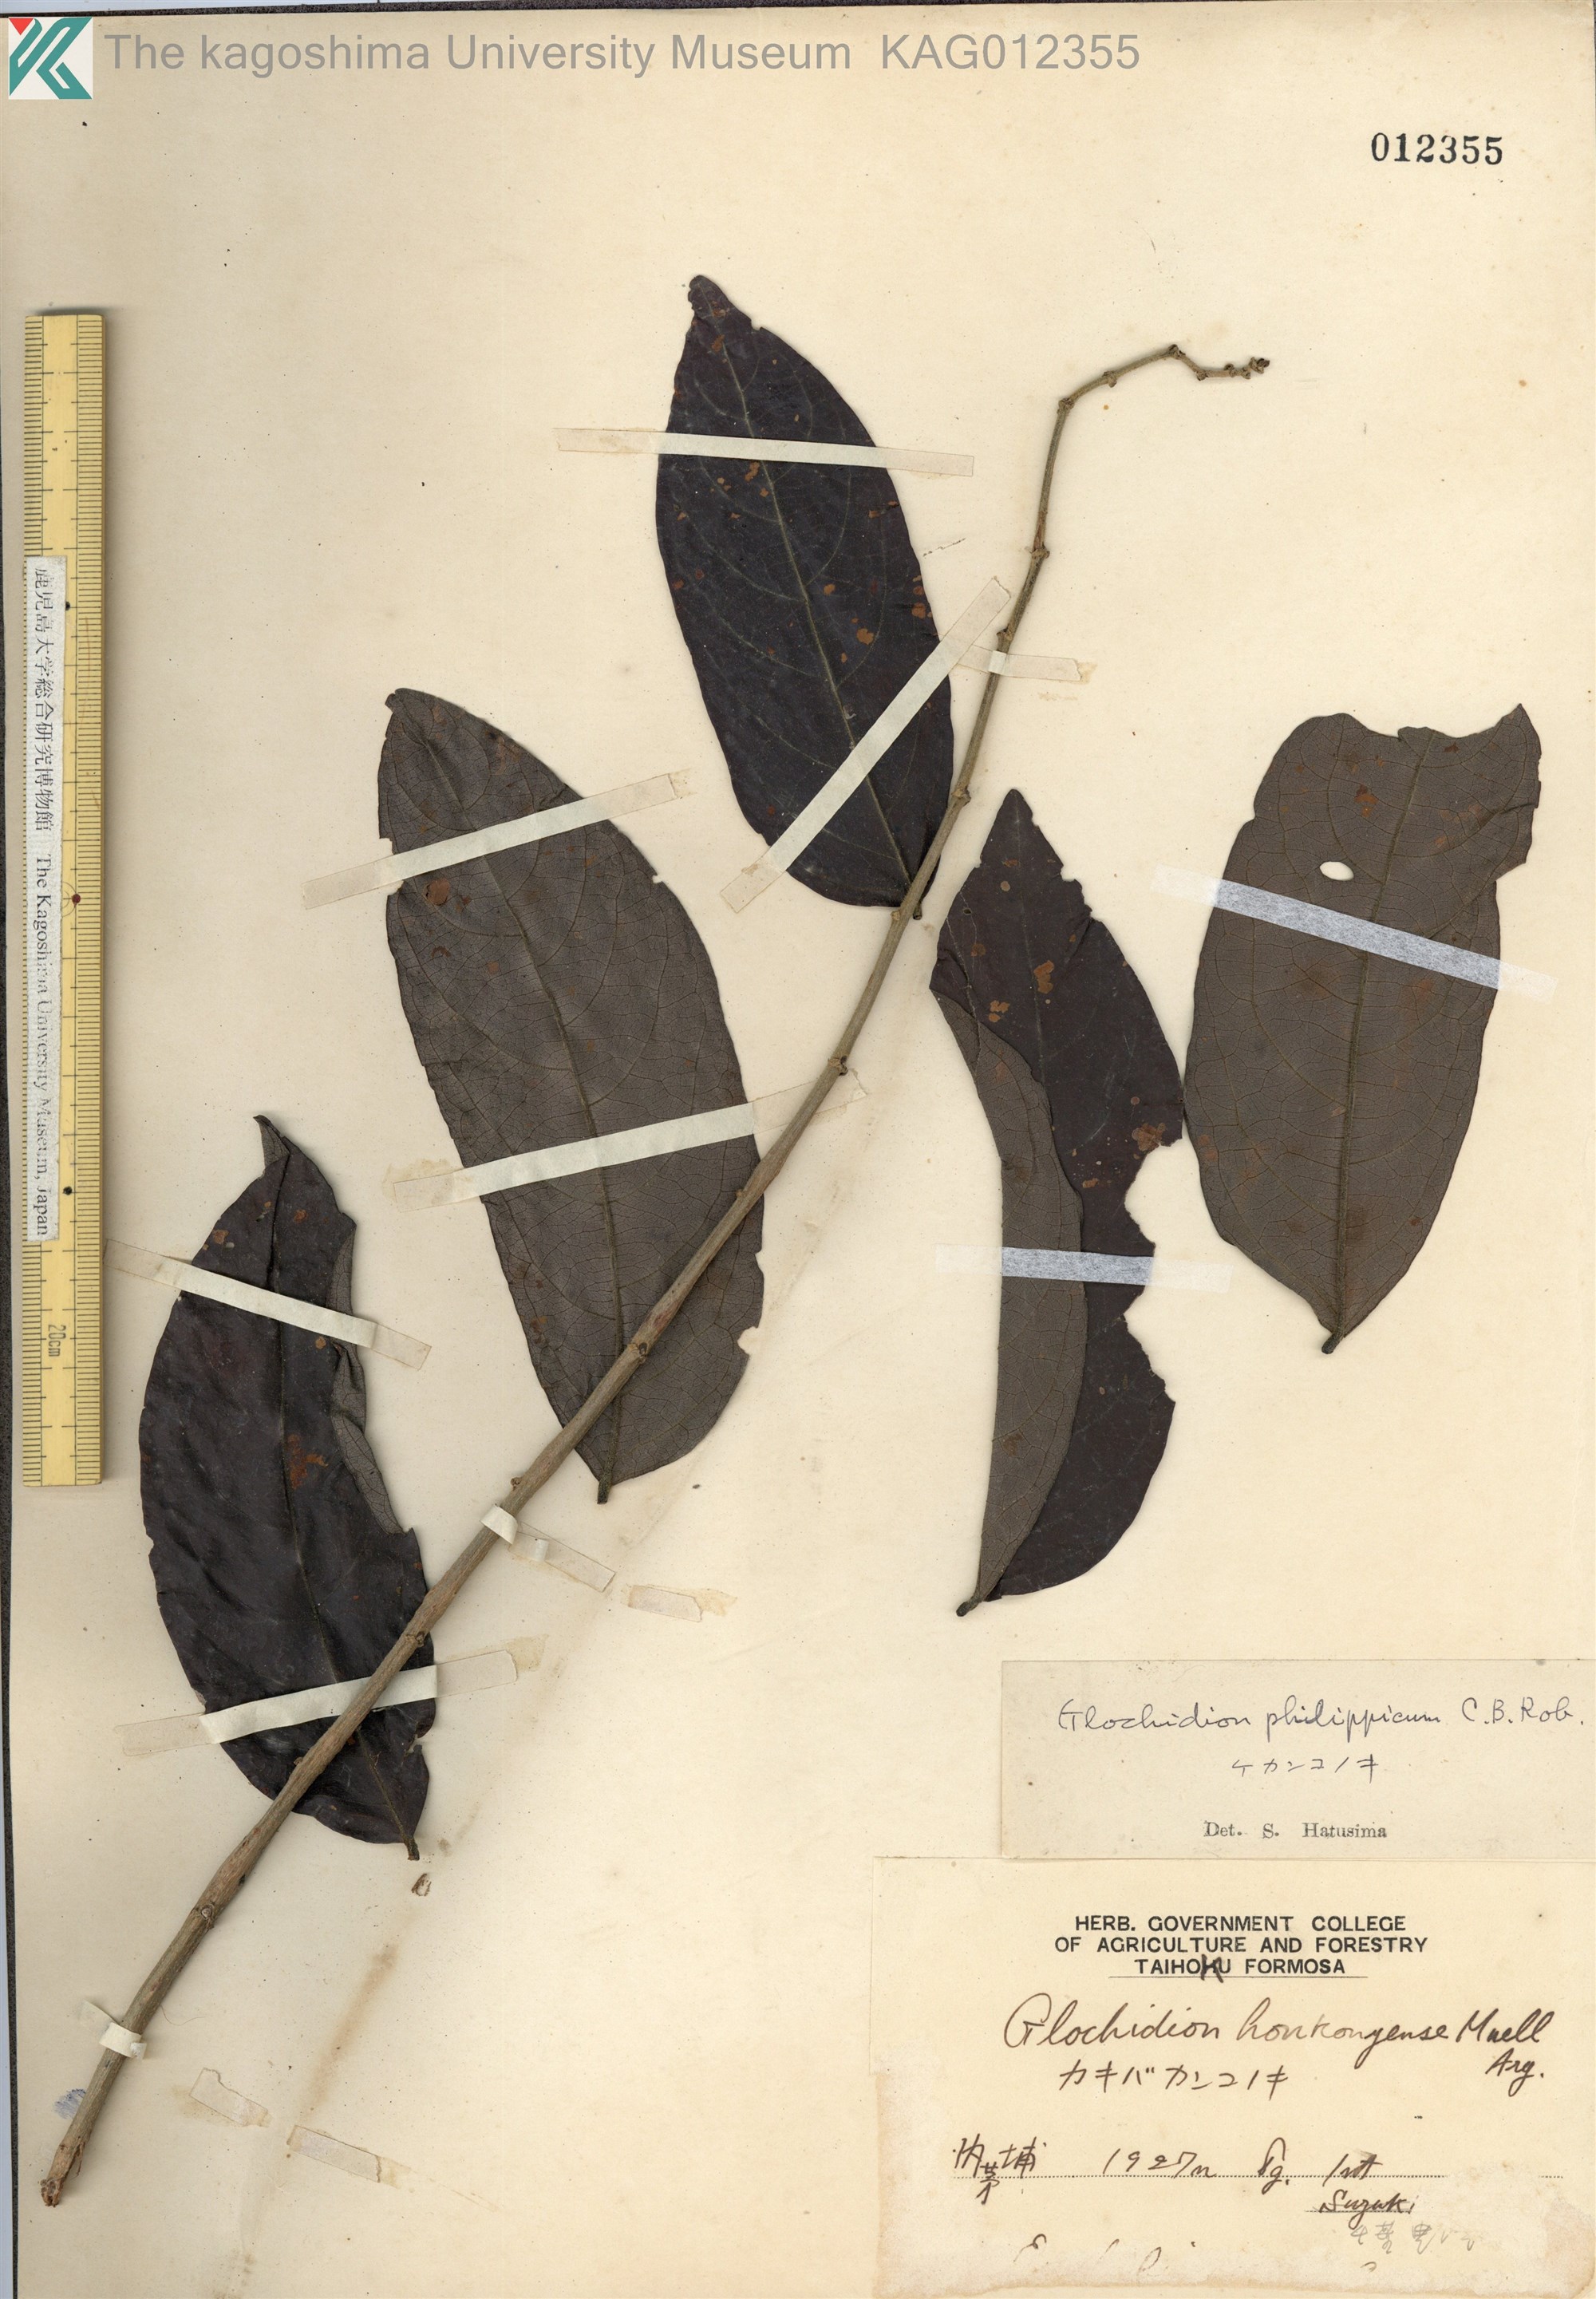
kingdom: Plantae
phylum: Tracheophyta
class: Magnoliopsida
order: Malpighiales
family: Phyllanthaceae
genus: Glochidion
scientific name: Glochidion philippicum
